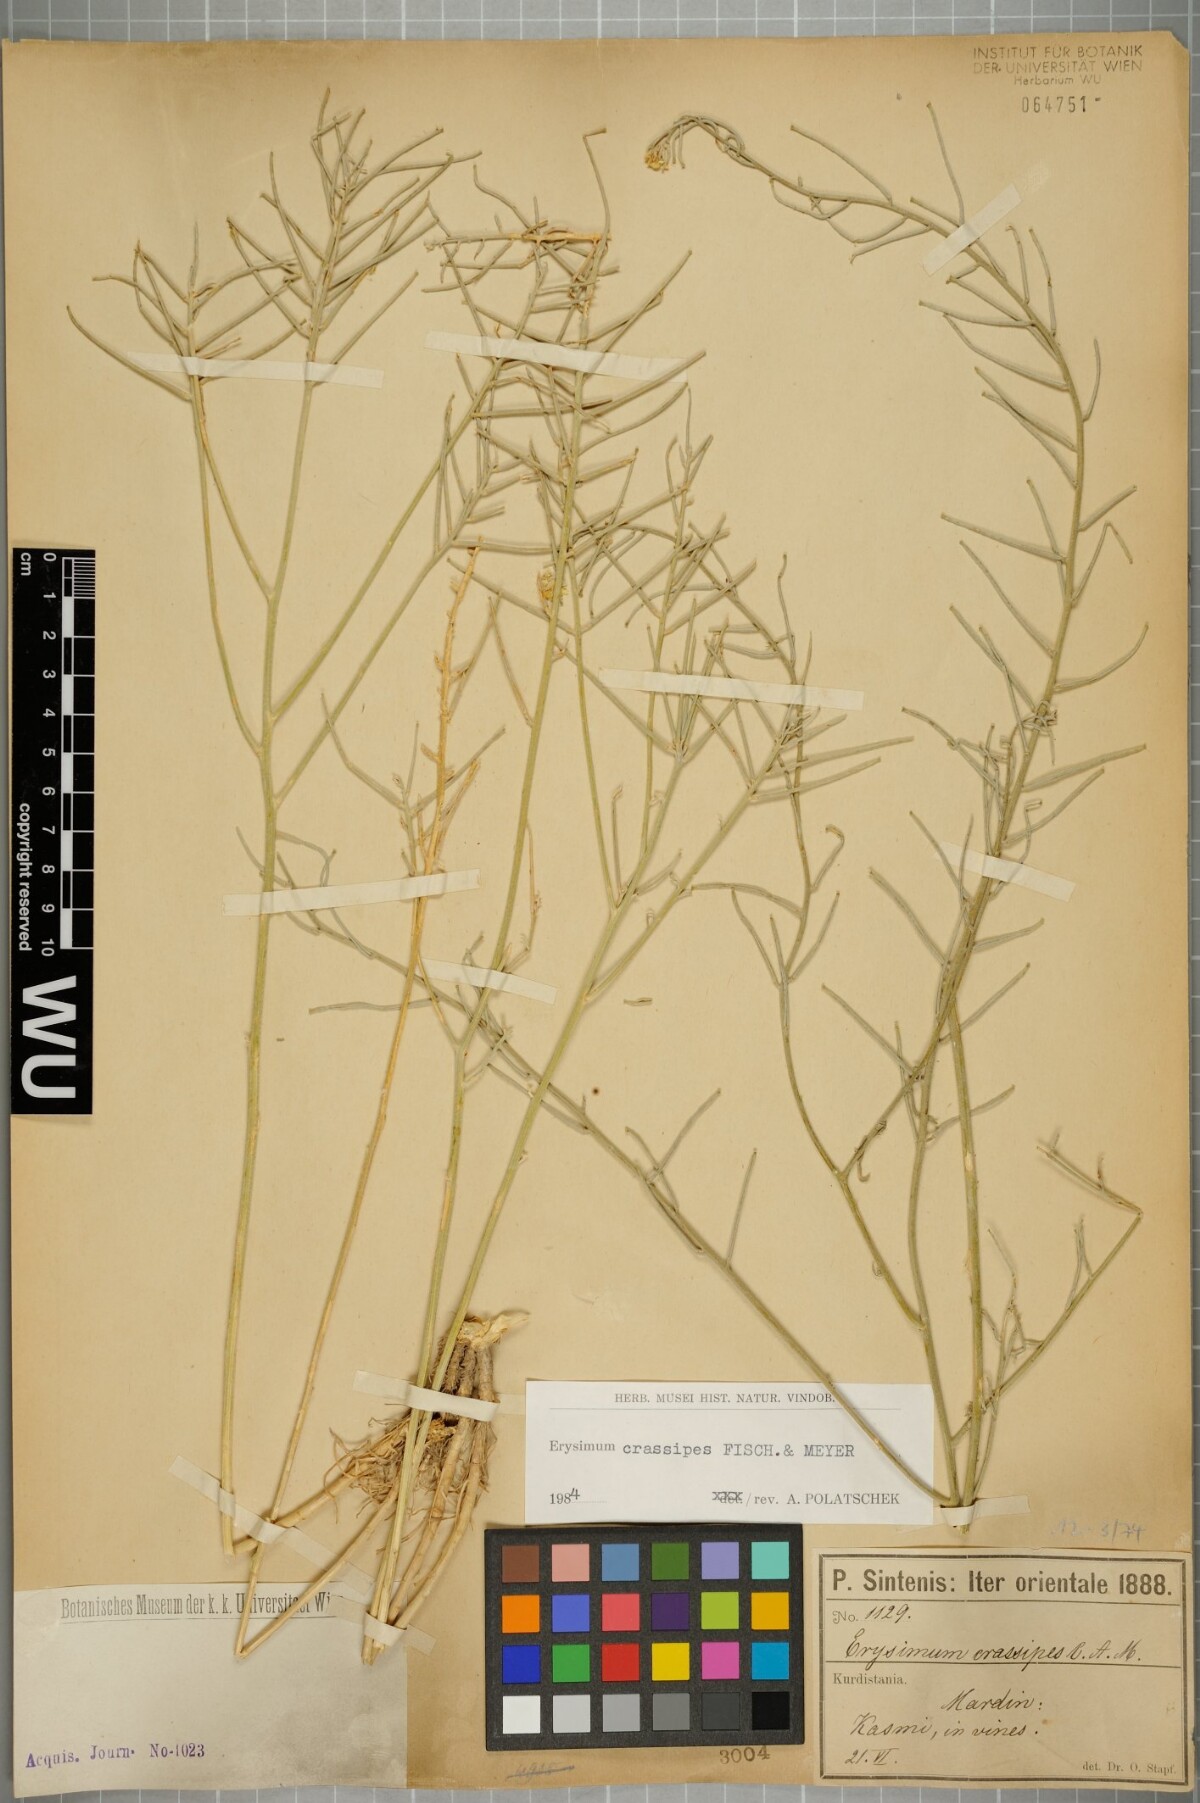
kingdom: Plantae
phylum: Tracheophyta
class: Magnoliopsida
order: Brassicales
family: Brassicaceae
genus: Erysimum
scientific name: Erysimum crassipes
